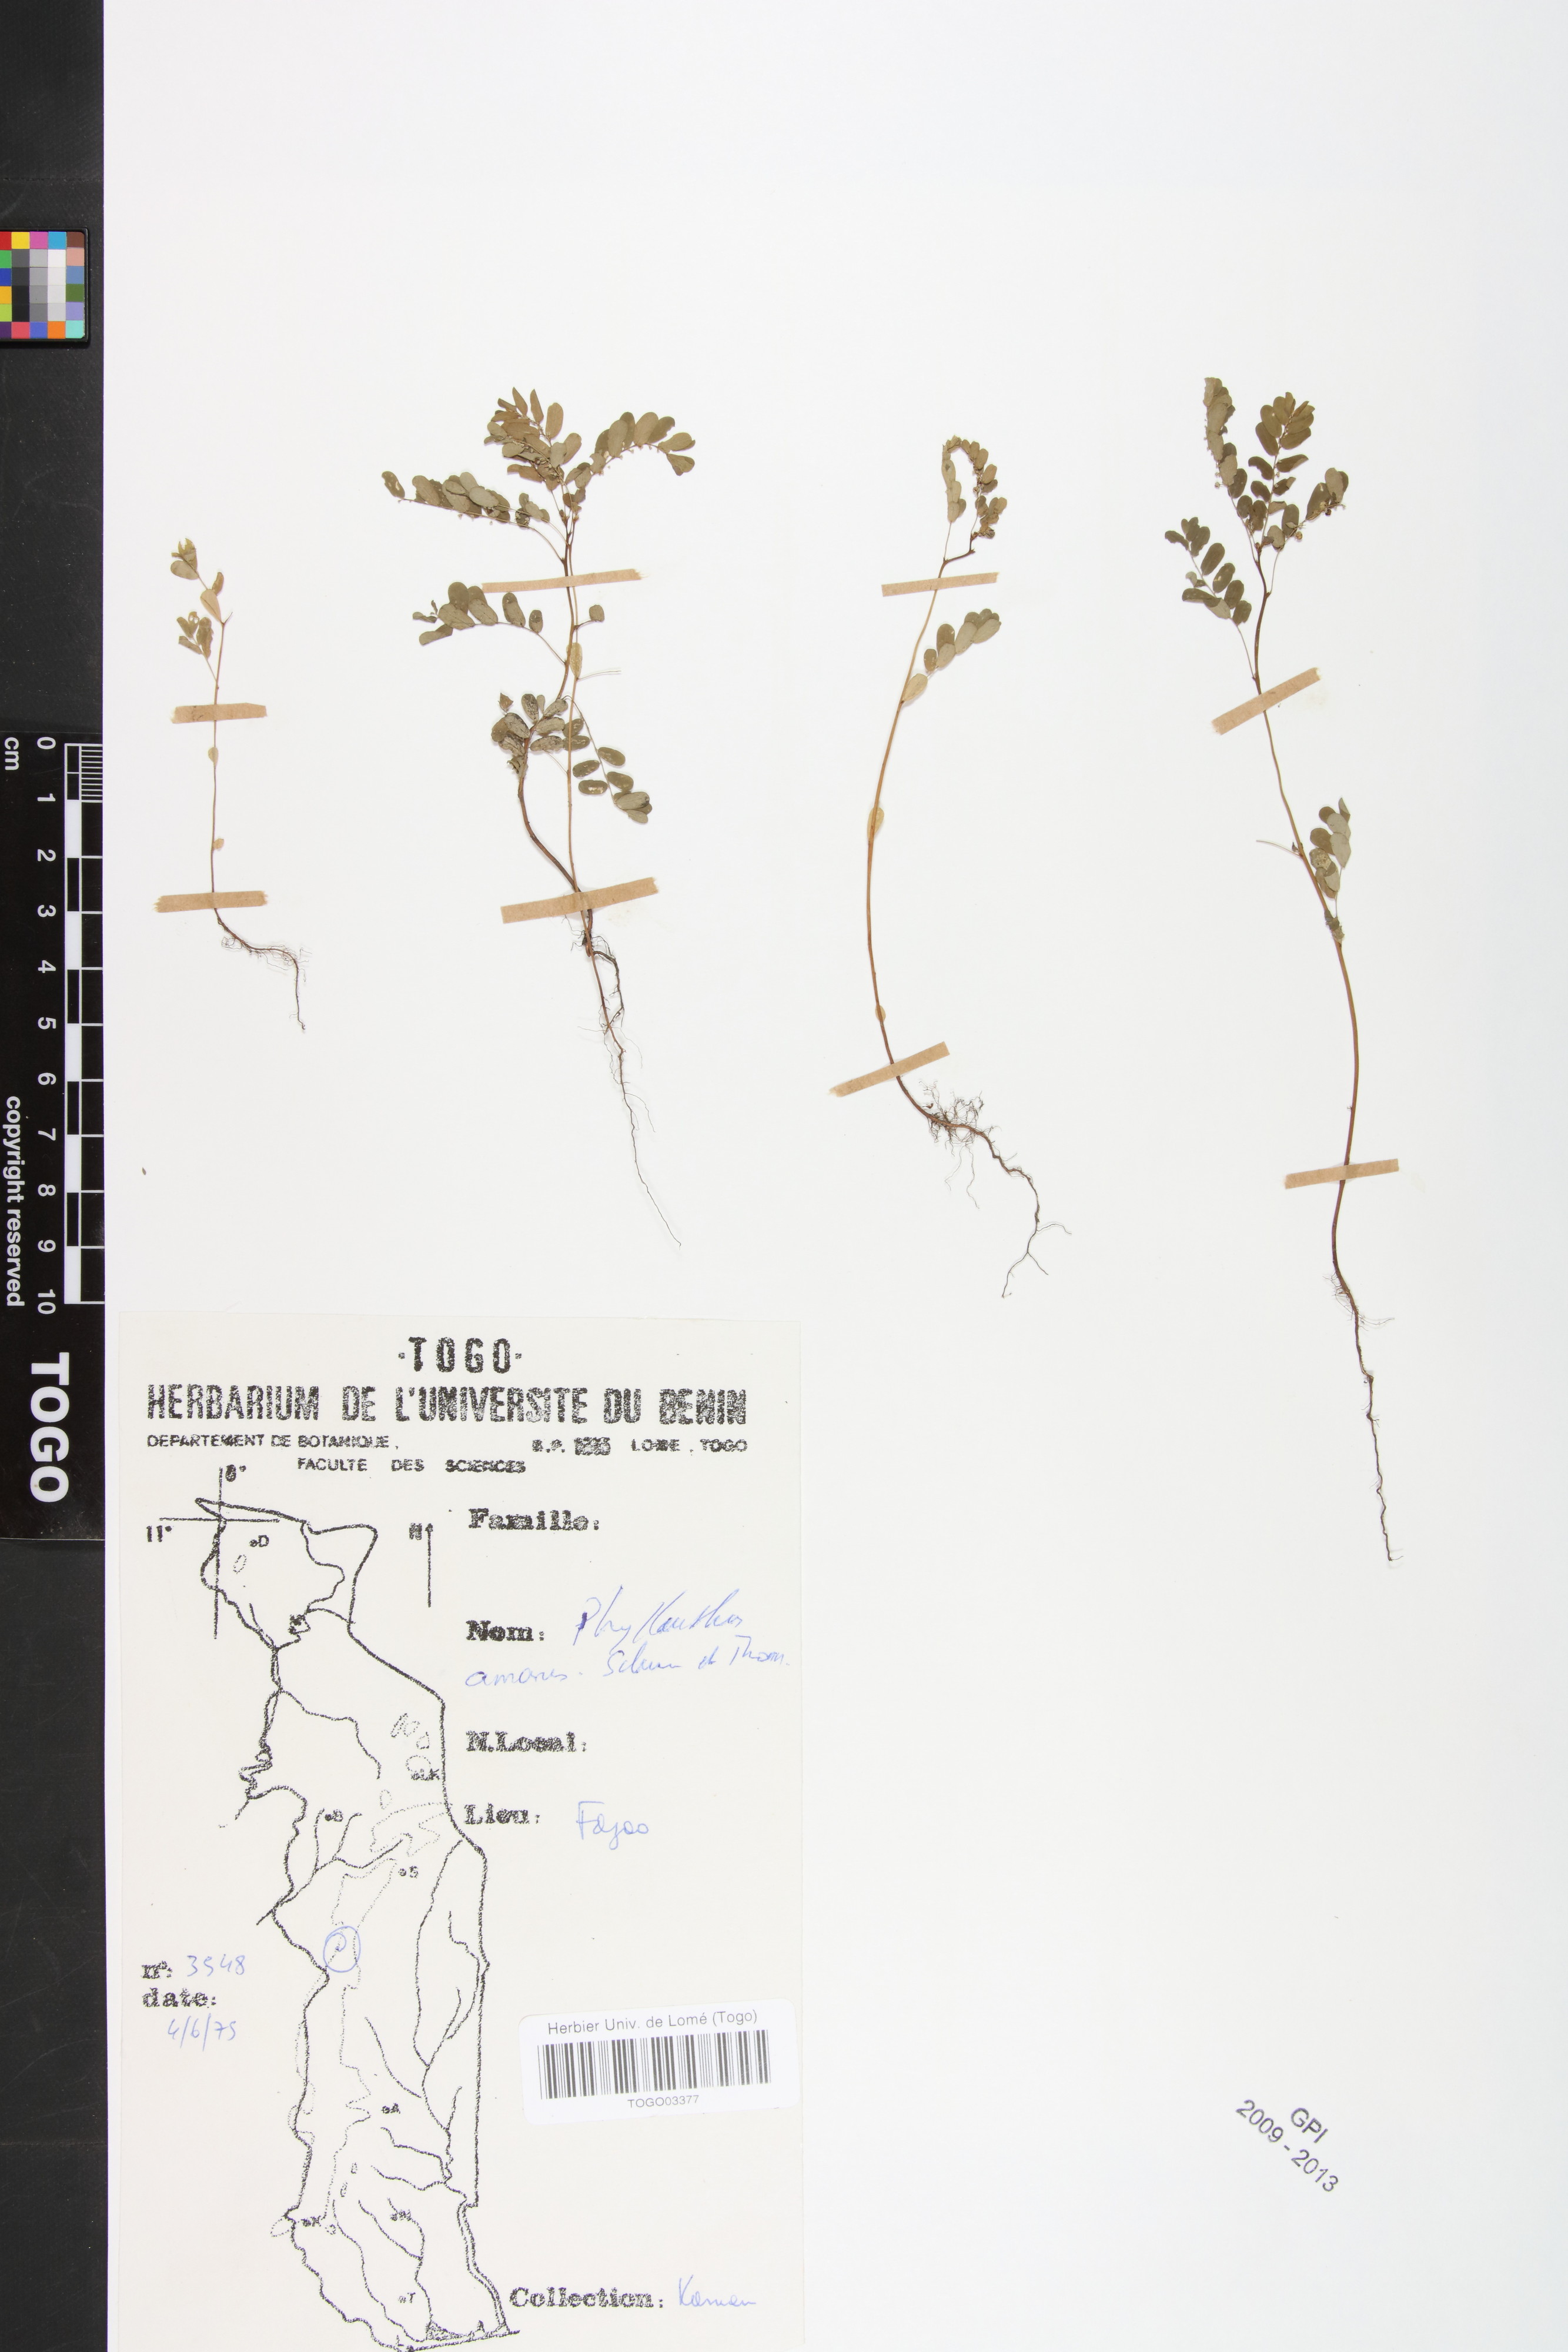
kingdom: Plantae
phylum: Tracheophyta
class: Magnoliopsida
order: Malpighiales
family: Phyllanthaceae
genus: Phyllanthus
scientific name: Phyllanthus amarus
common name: Carry me seed
